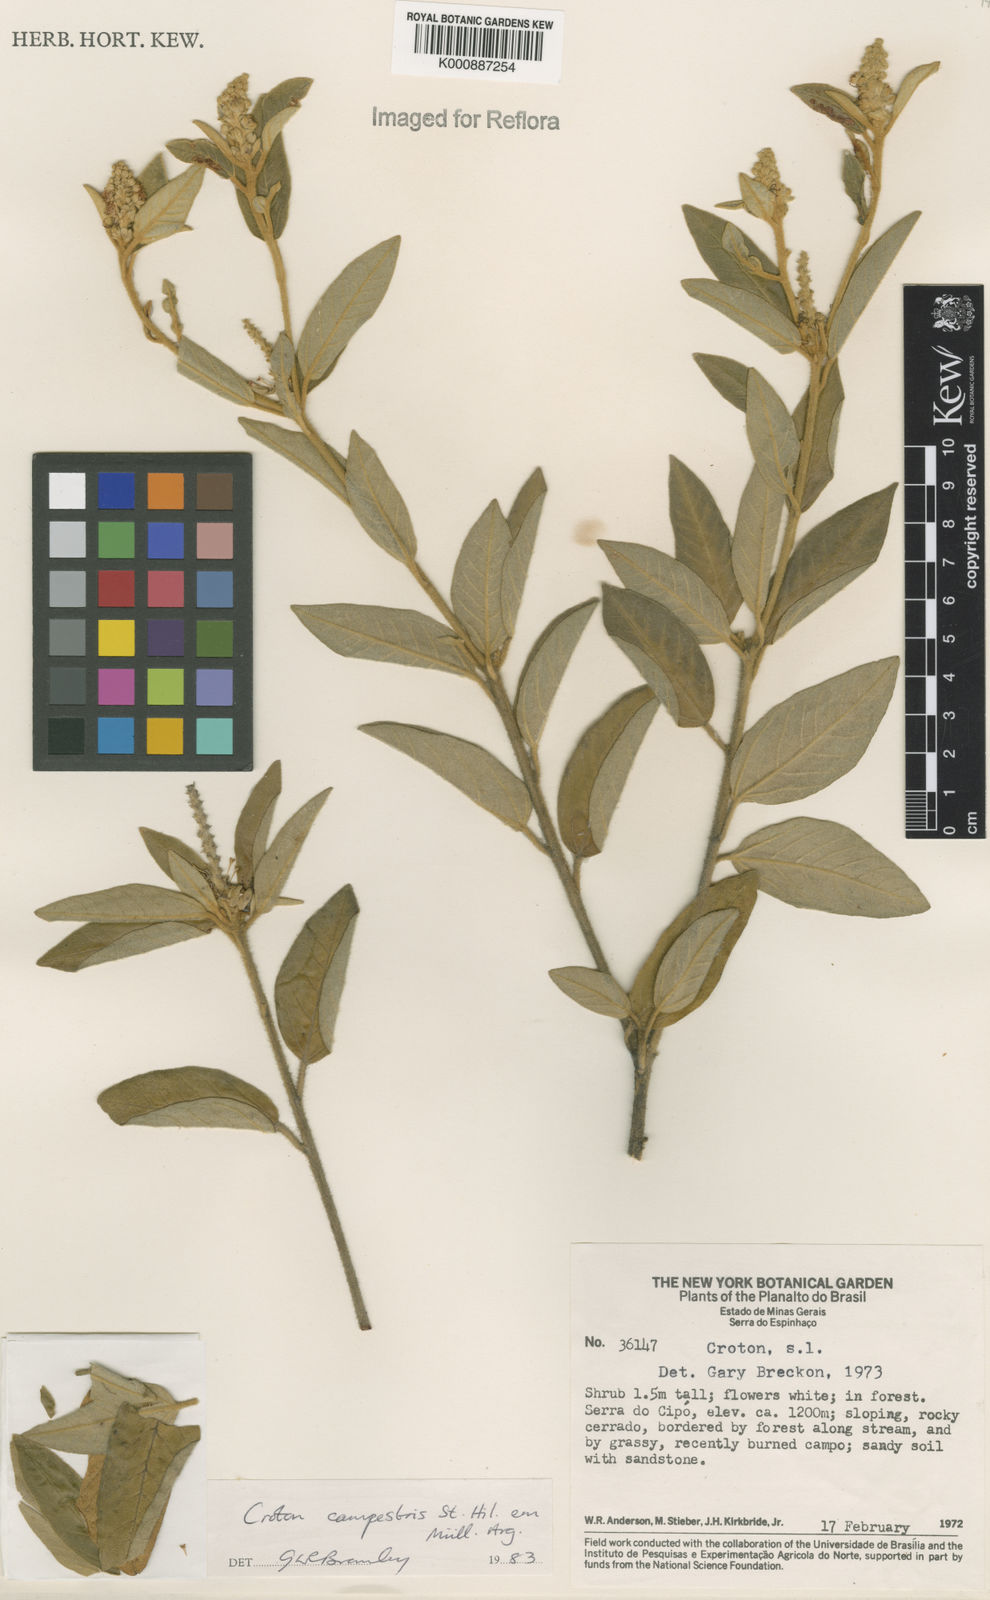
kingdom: Plantae
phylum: Tracheophyta
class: Magnoliopsida
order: Malpighiales
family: Euphorbiaceae
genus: Croton
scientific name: Croton campestris
